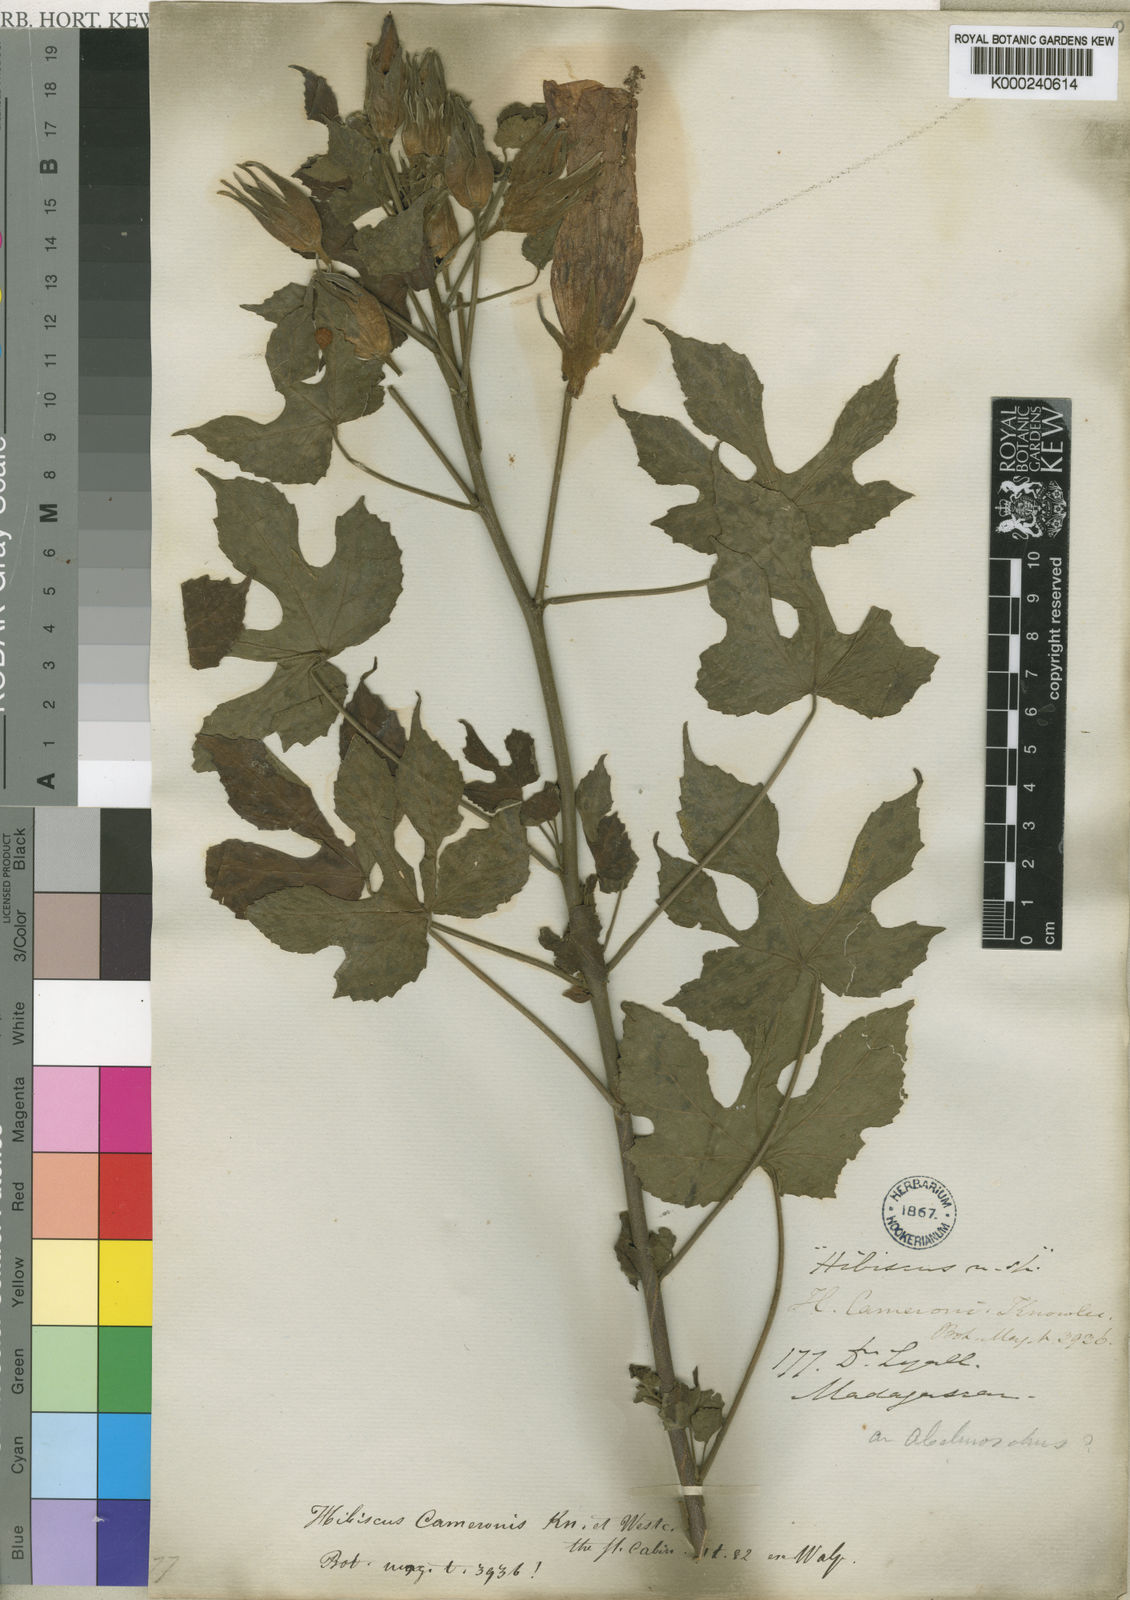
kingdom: Plantae
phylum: Tracheophyta
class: Magnoliopsida
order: Malvales
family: Malvaceae
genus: Hibiscus
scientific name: Hibiscus cameronii
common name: Pink hibiscus
